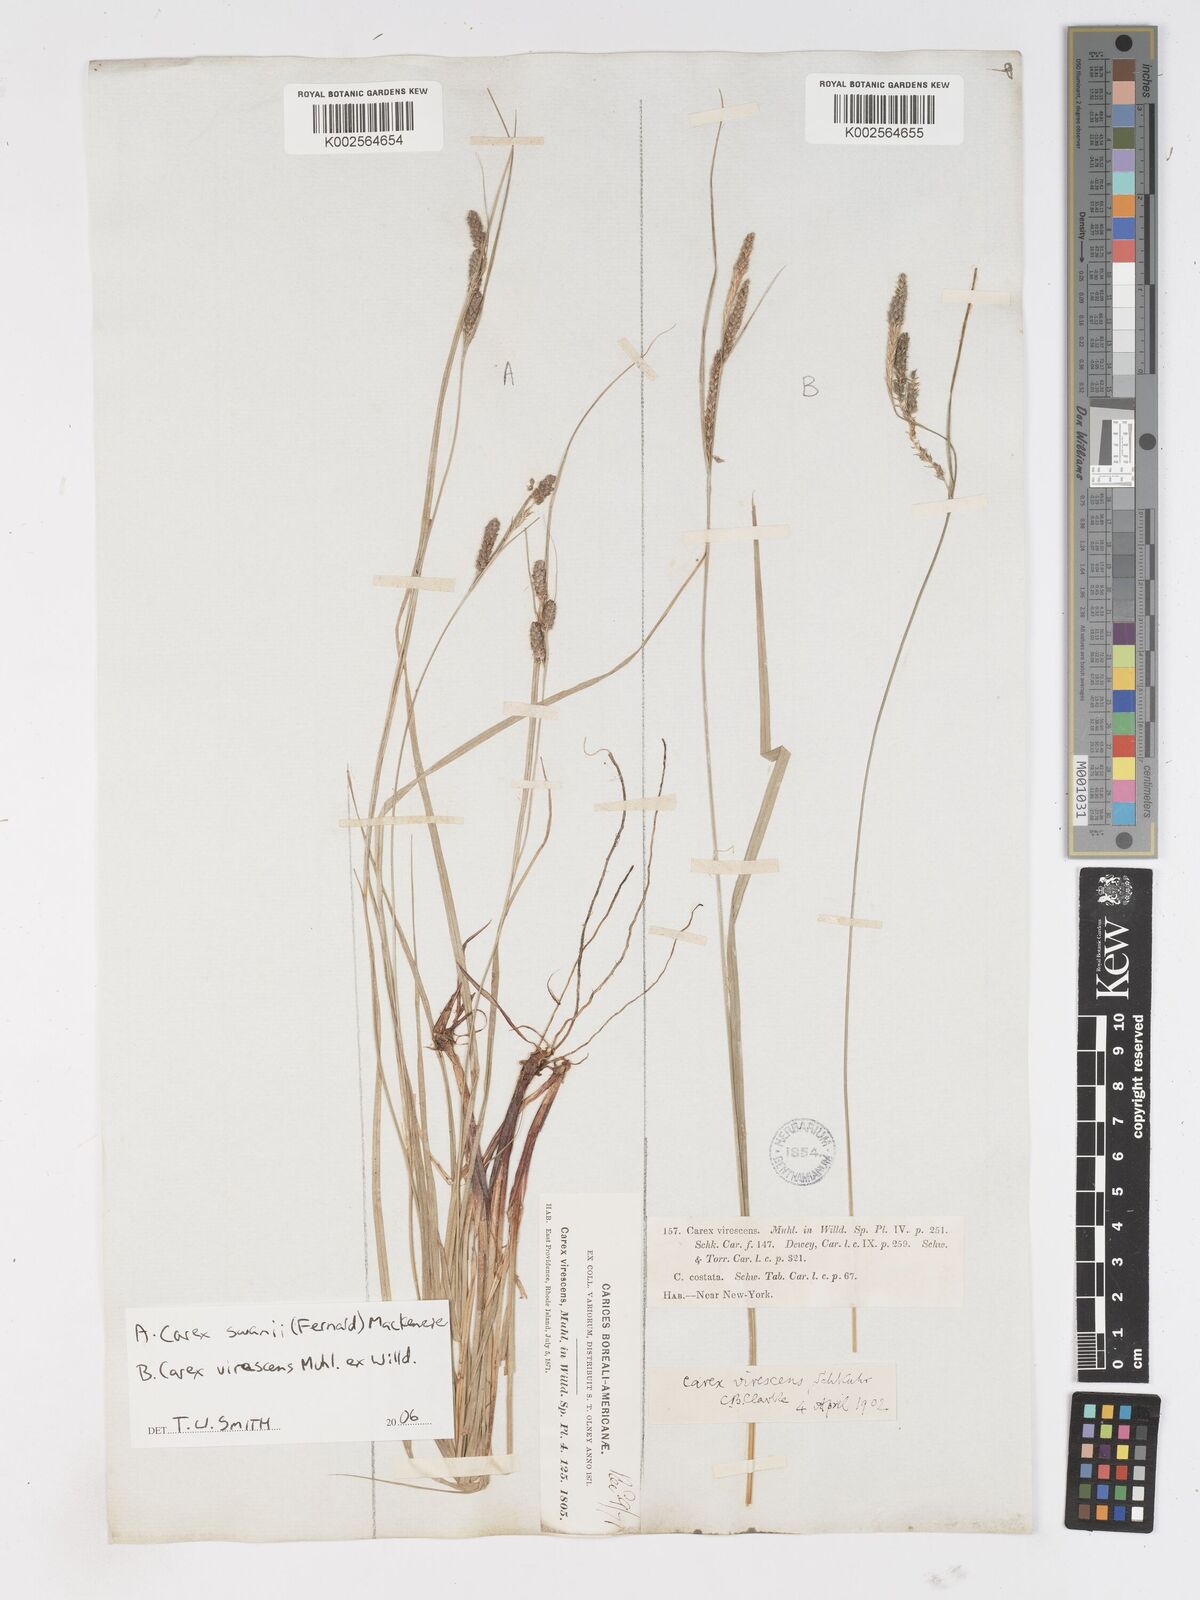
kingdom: Plantae
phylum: Tracheophyta
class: Liliopsida
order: Poales
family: Cyperaceae
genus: Carex
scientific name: Carex
